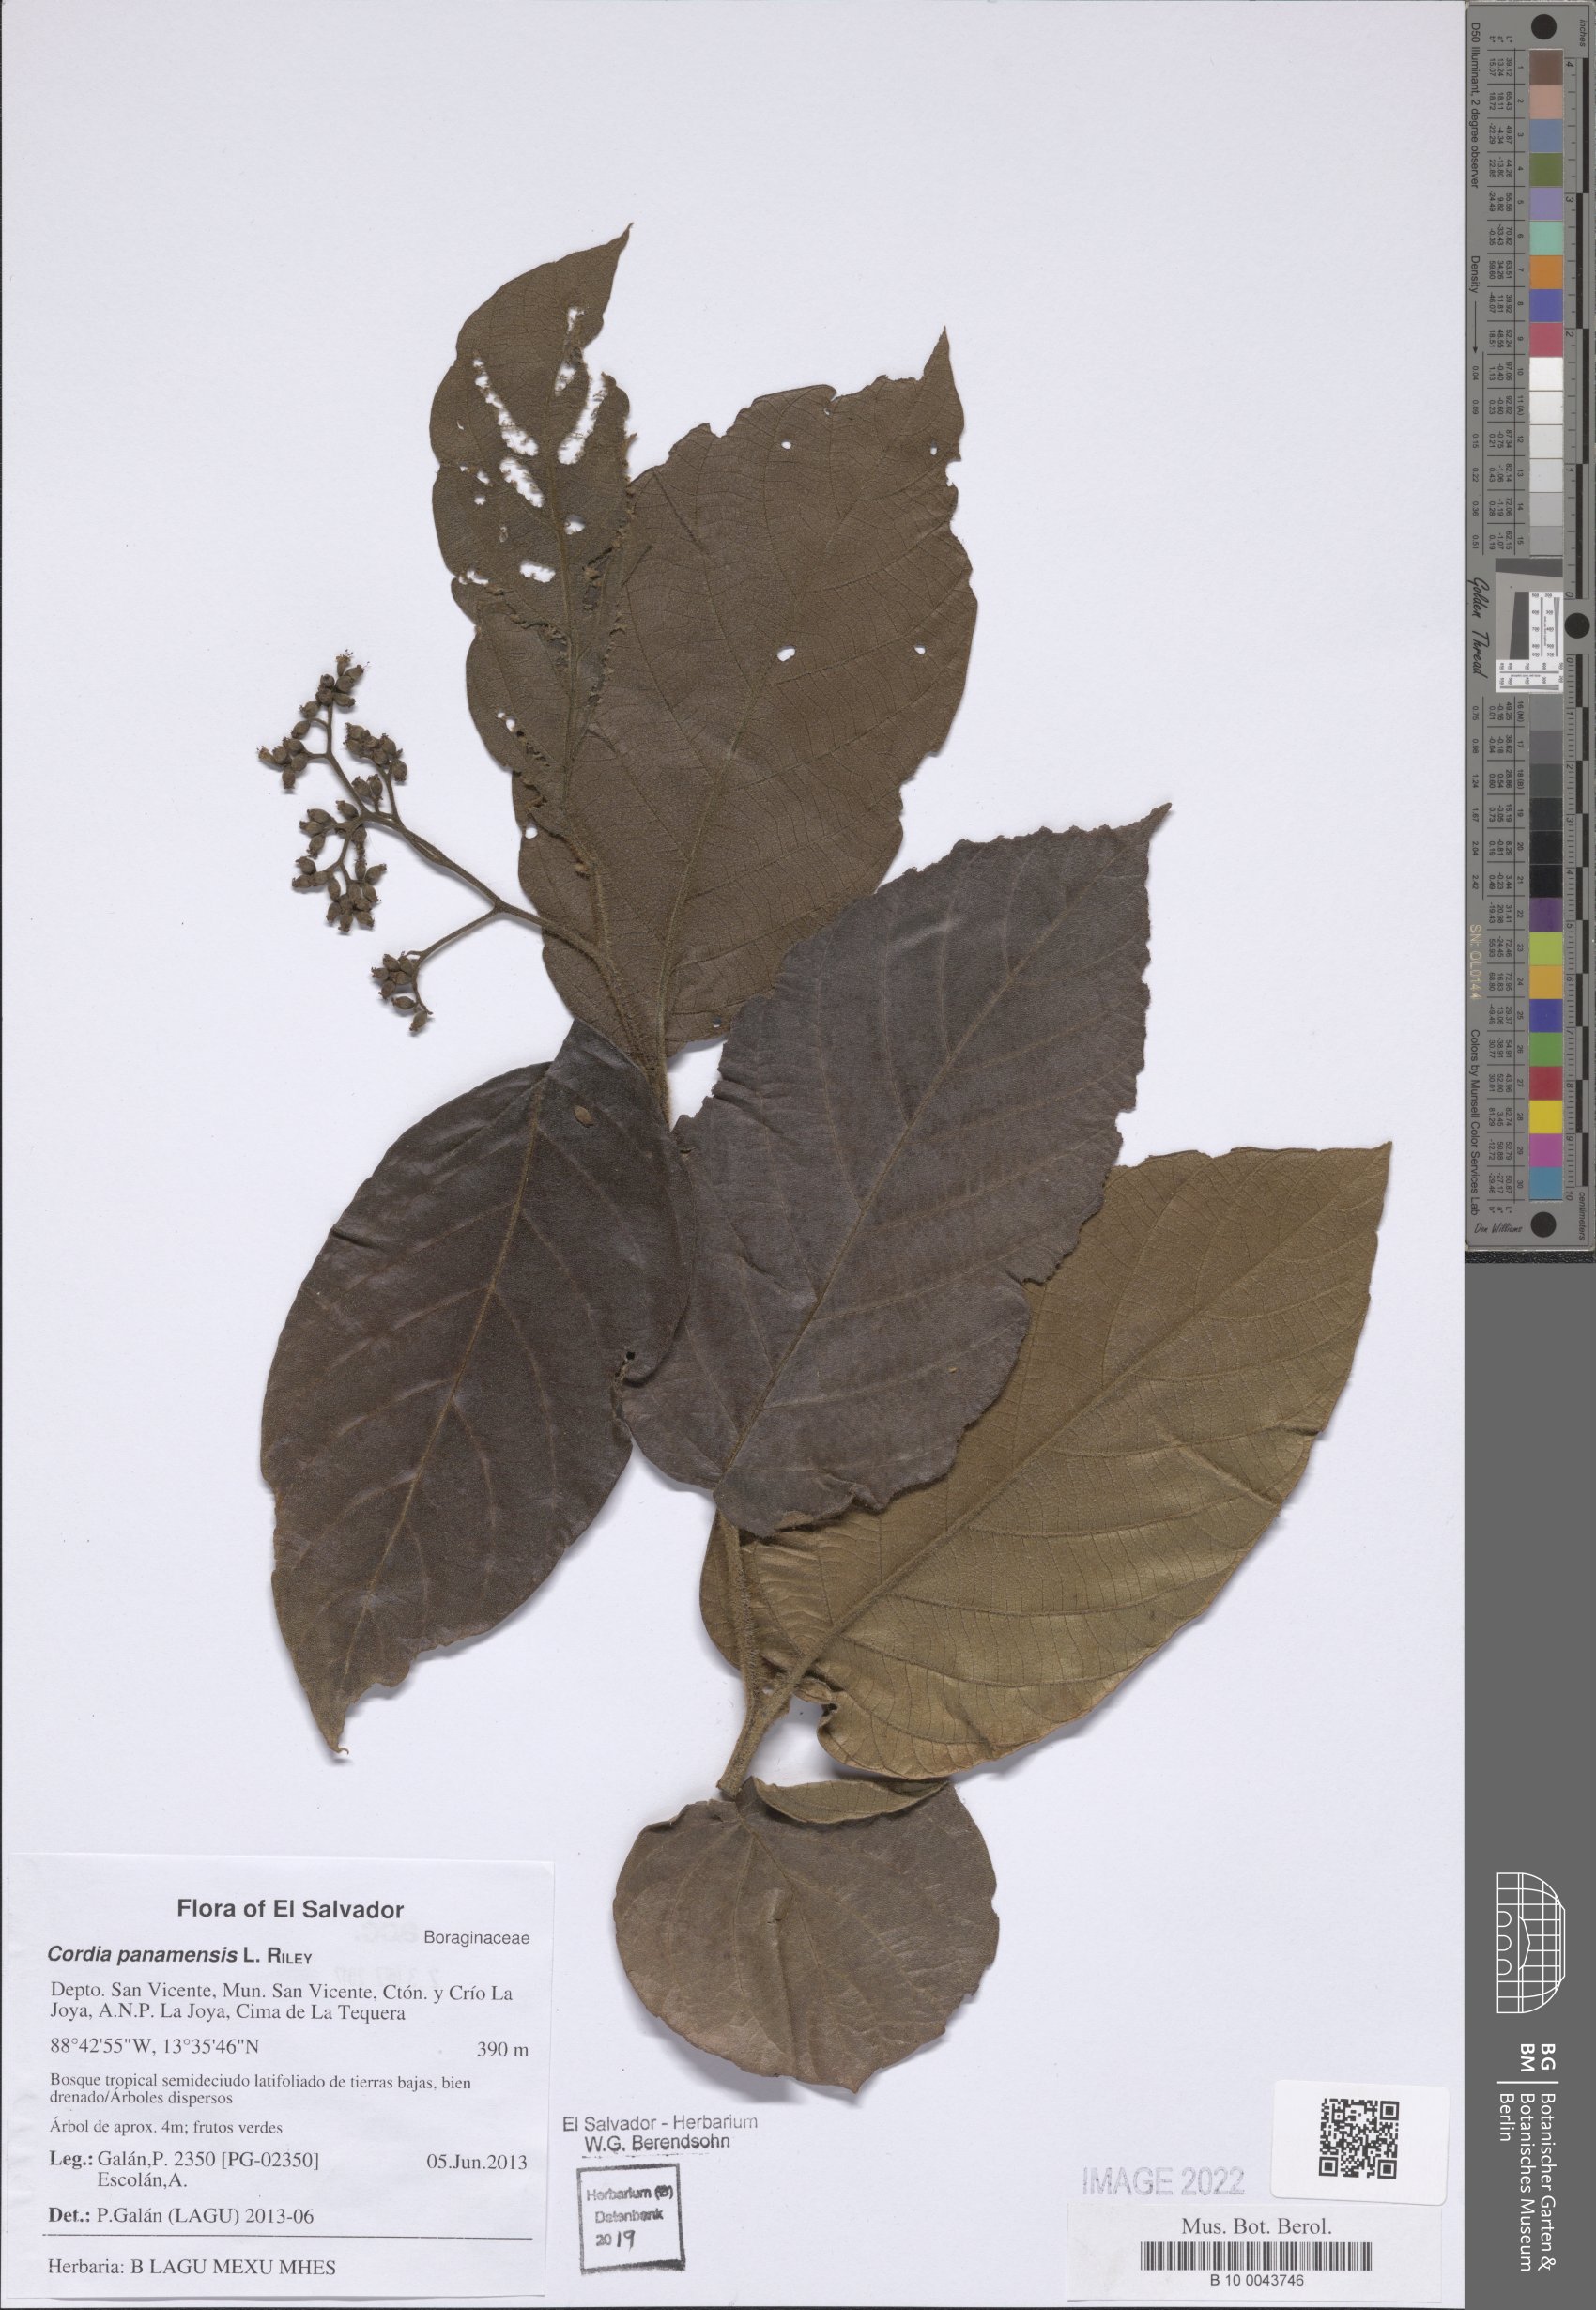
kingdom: Plantae
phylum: Tracheophyta
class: Magnoliopsida
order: Boraginales
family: Cordiaceae
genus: Cordia
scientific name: Cordia panamensis
